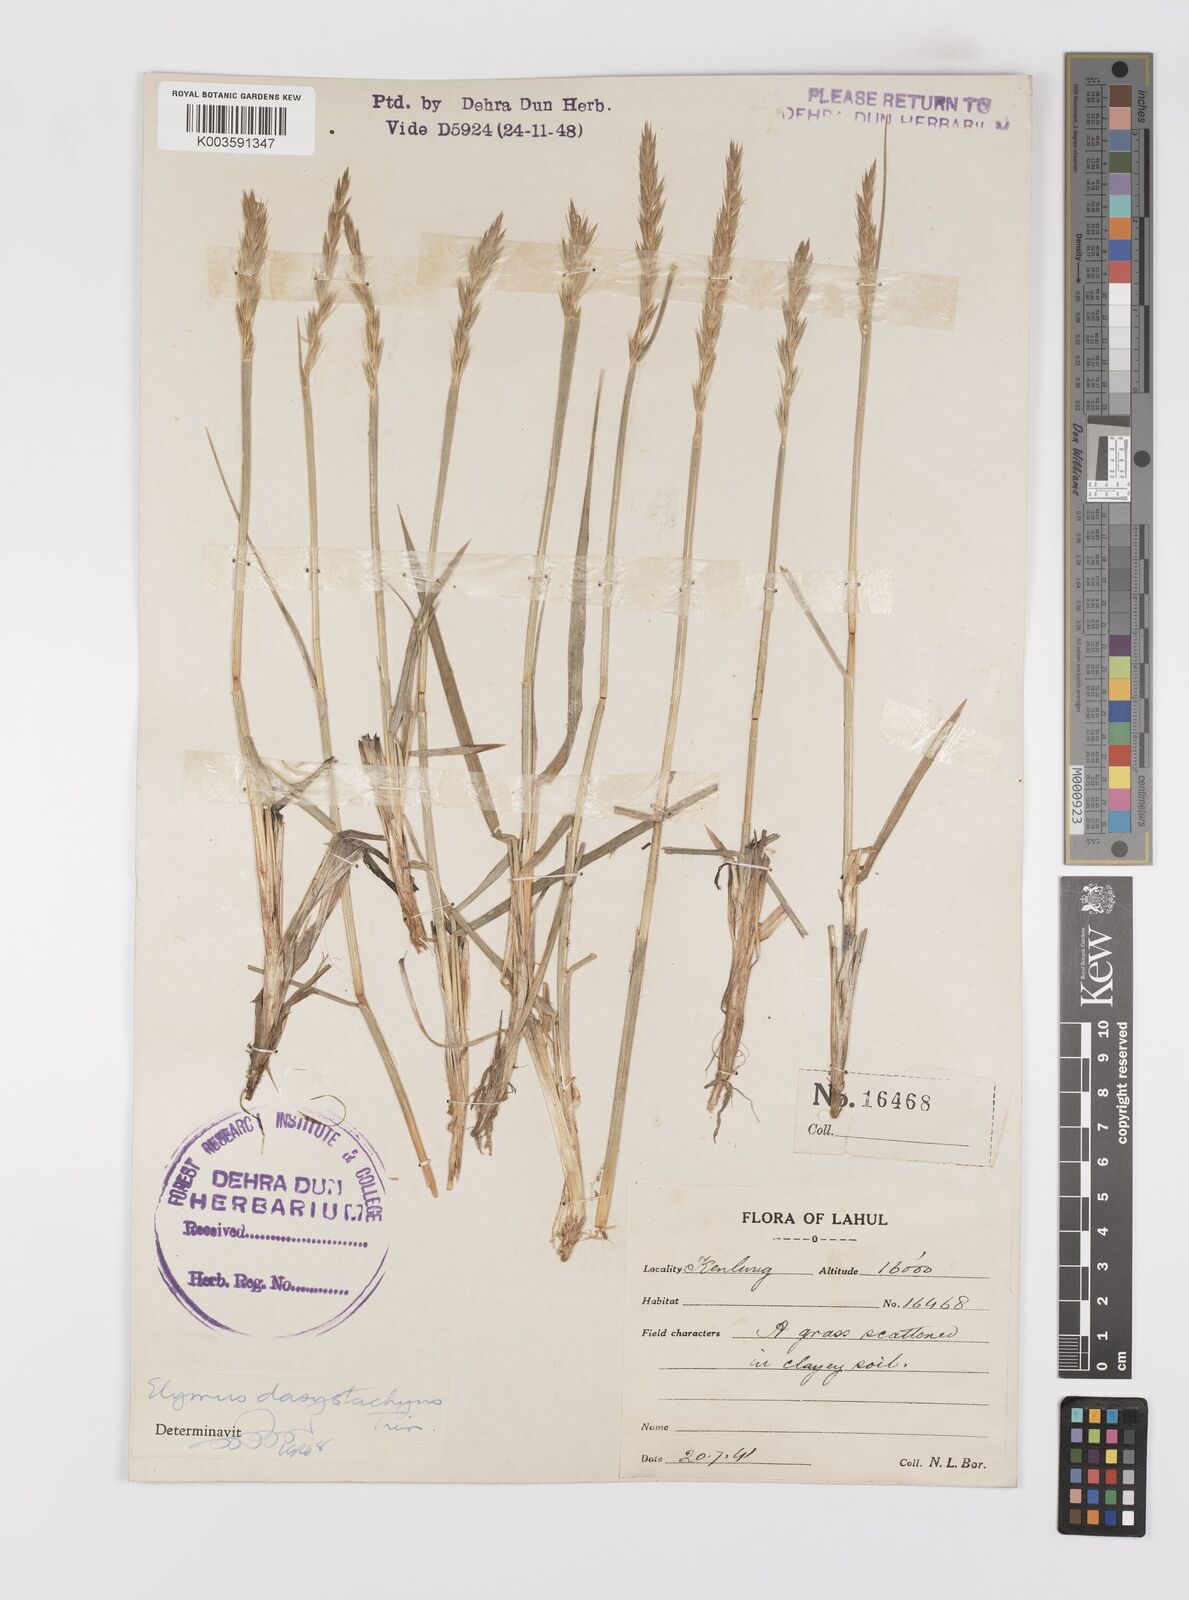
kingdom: Plantae
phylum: Tracheophyta
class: Liliopsida
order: Poales
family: Poaceae
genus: Leymus
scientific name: Leymus secalinus
